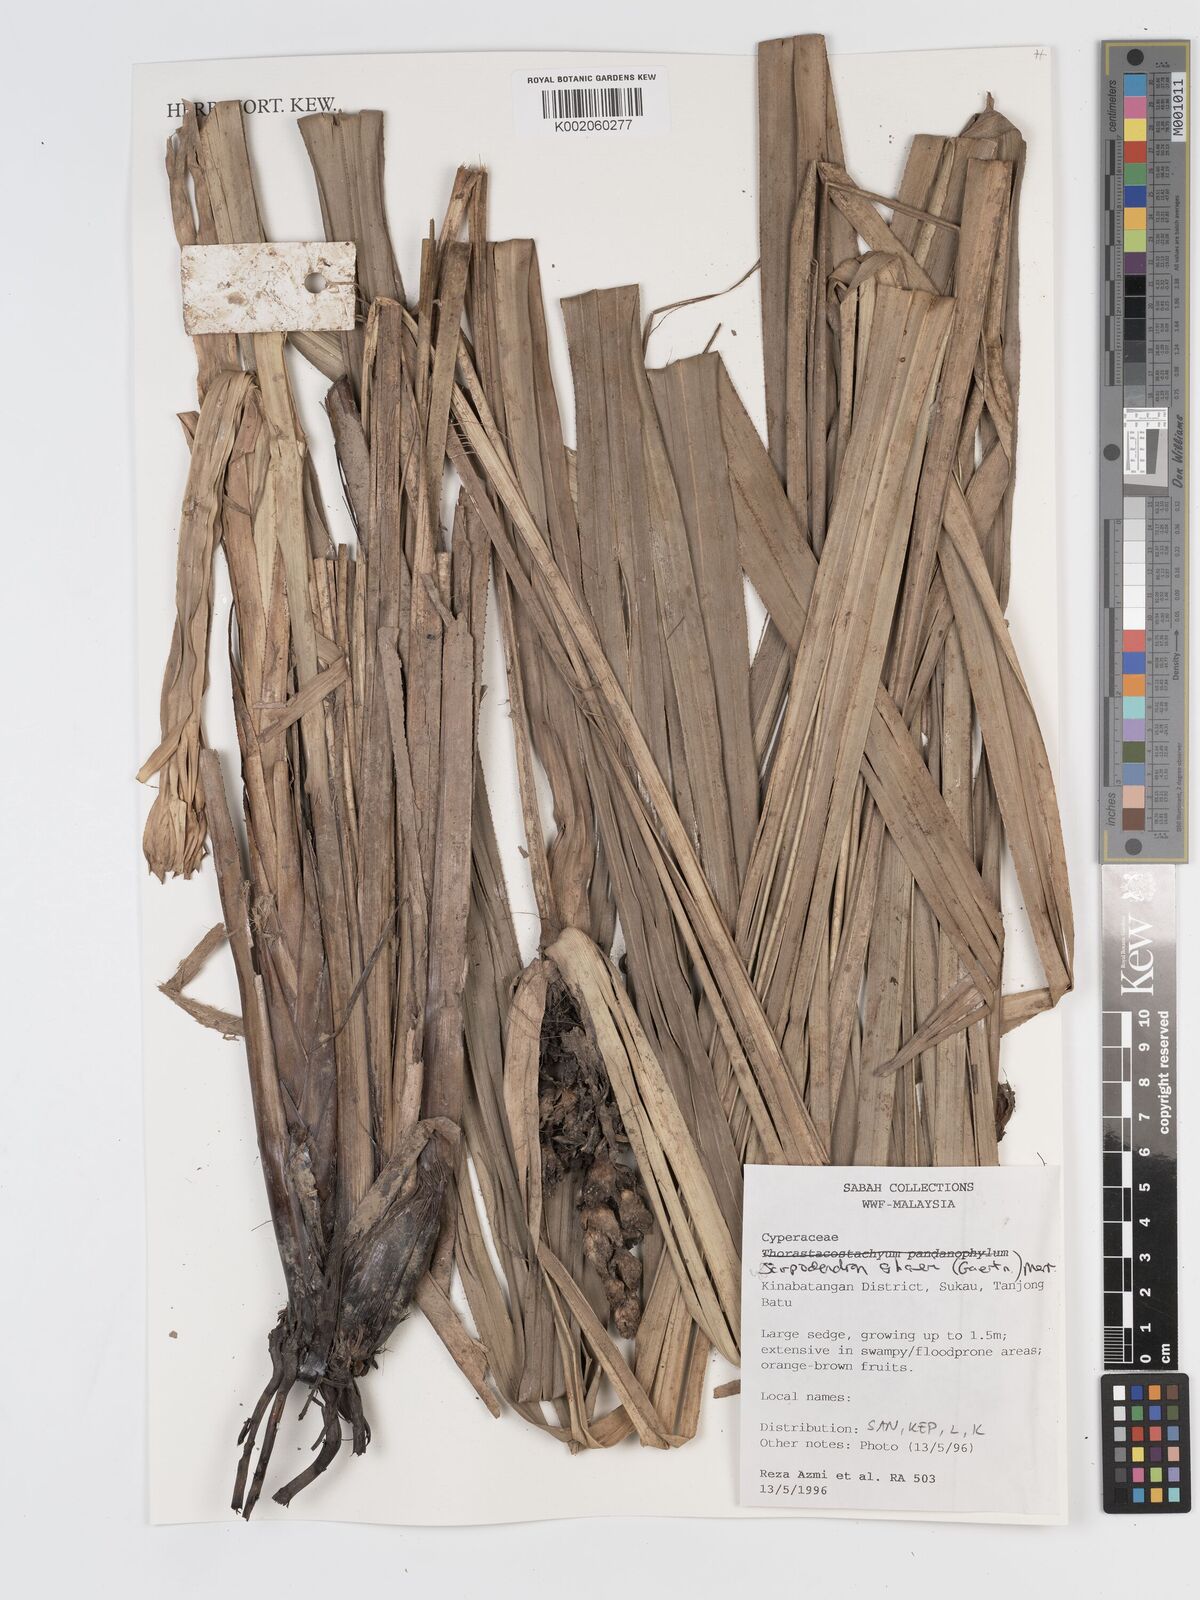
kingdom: Plantae
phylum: Tracheophyta
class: Liliopsida
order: Poales
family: Cyperaceae
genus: Scirpodendron
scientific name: Scirpodendron ghaeri
